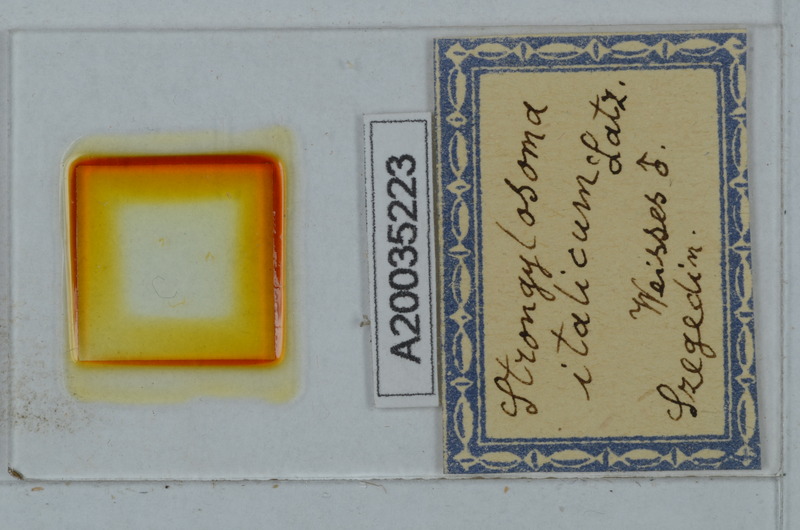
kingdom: Animalia
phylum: Arthropoda
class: Diplopoda
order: Polydesmida
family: Paradoxosomatidae
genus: Strongylosoma
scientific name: Strongylosoma italica
